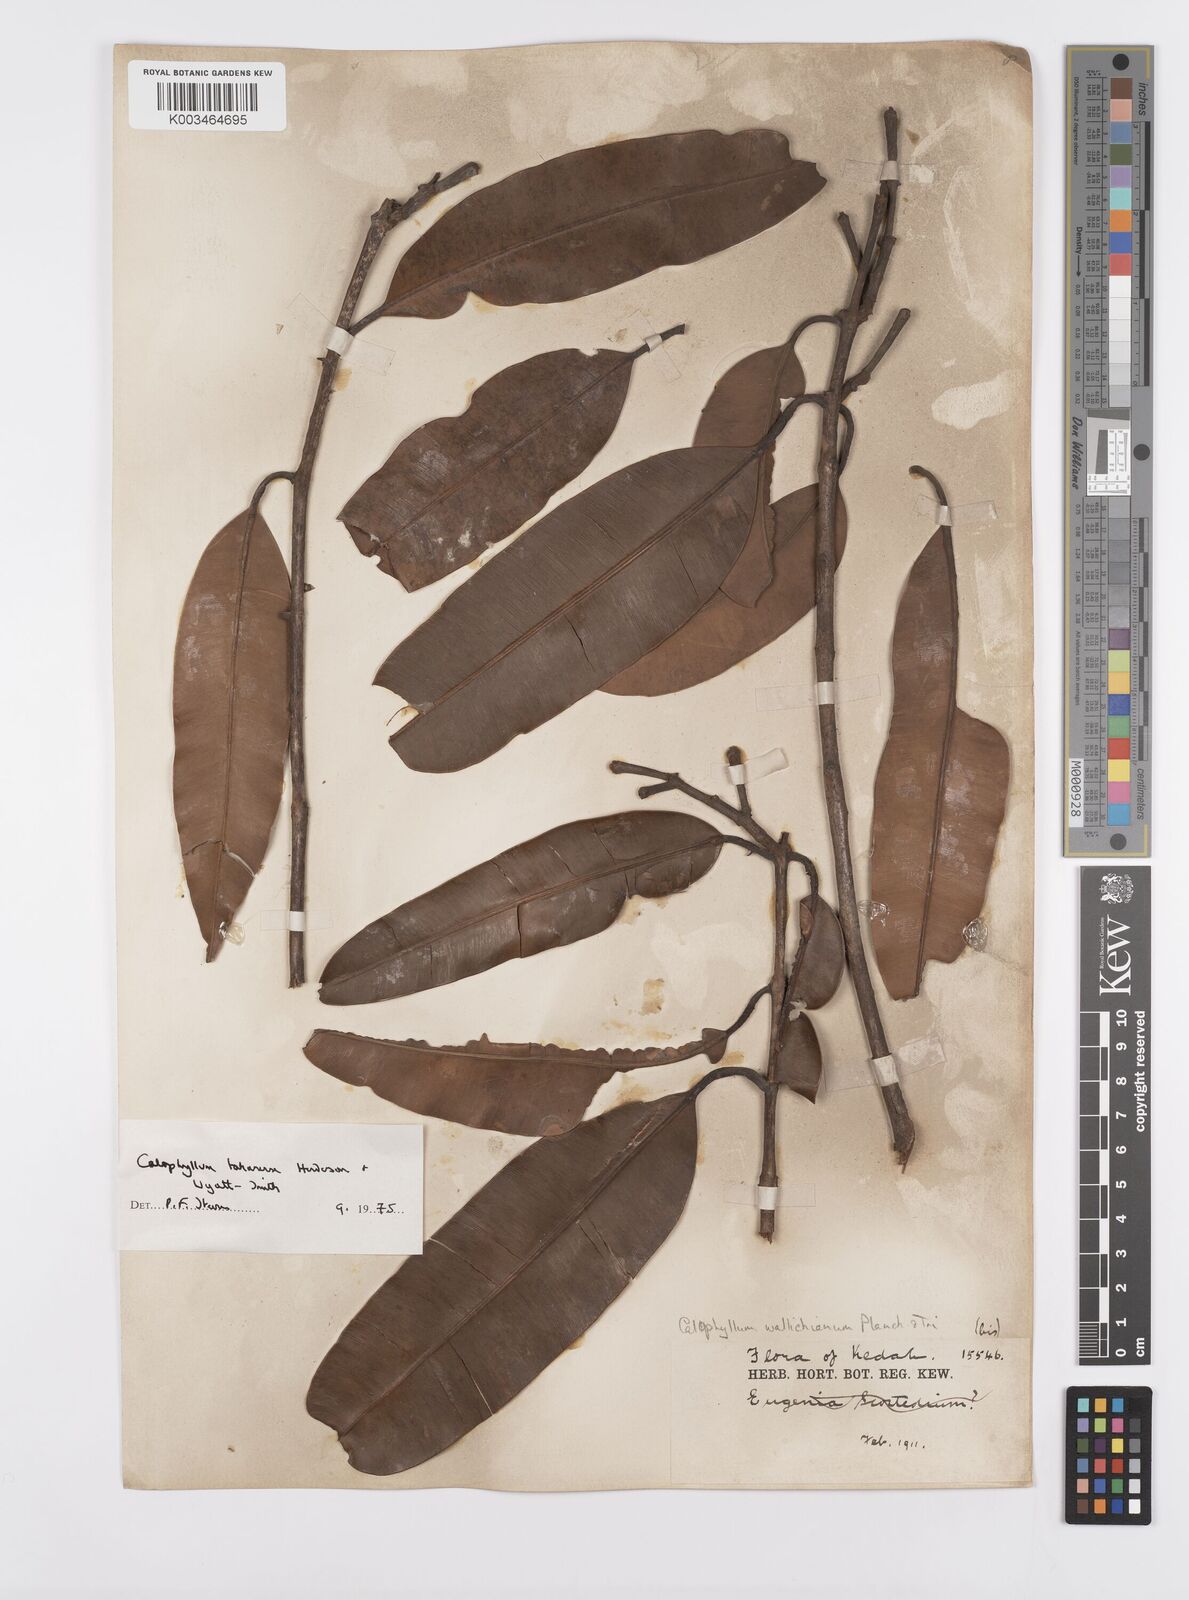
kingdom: Plantae
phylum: Tracheophyta
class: Magnoliopsida
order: Malpighiales
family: Calophyllaceae
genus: Calophyllum
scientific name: Calophyllum wallichiana
